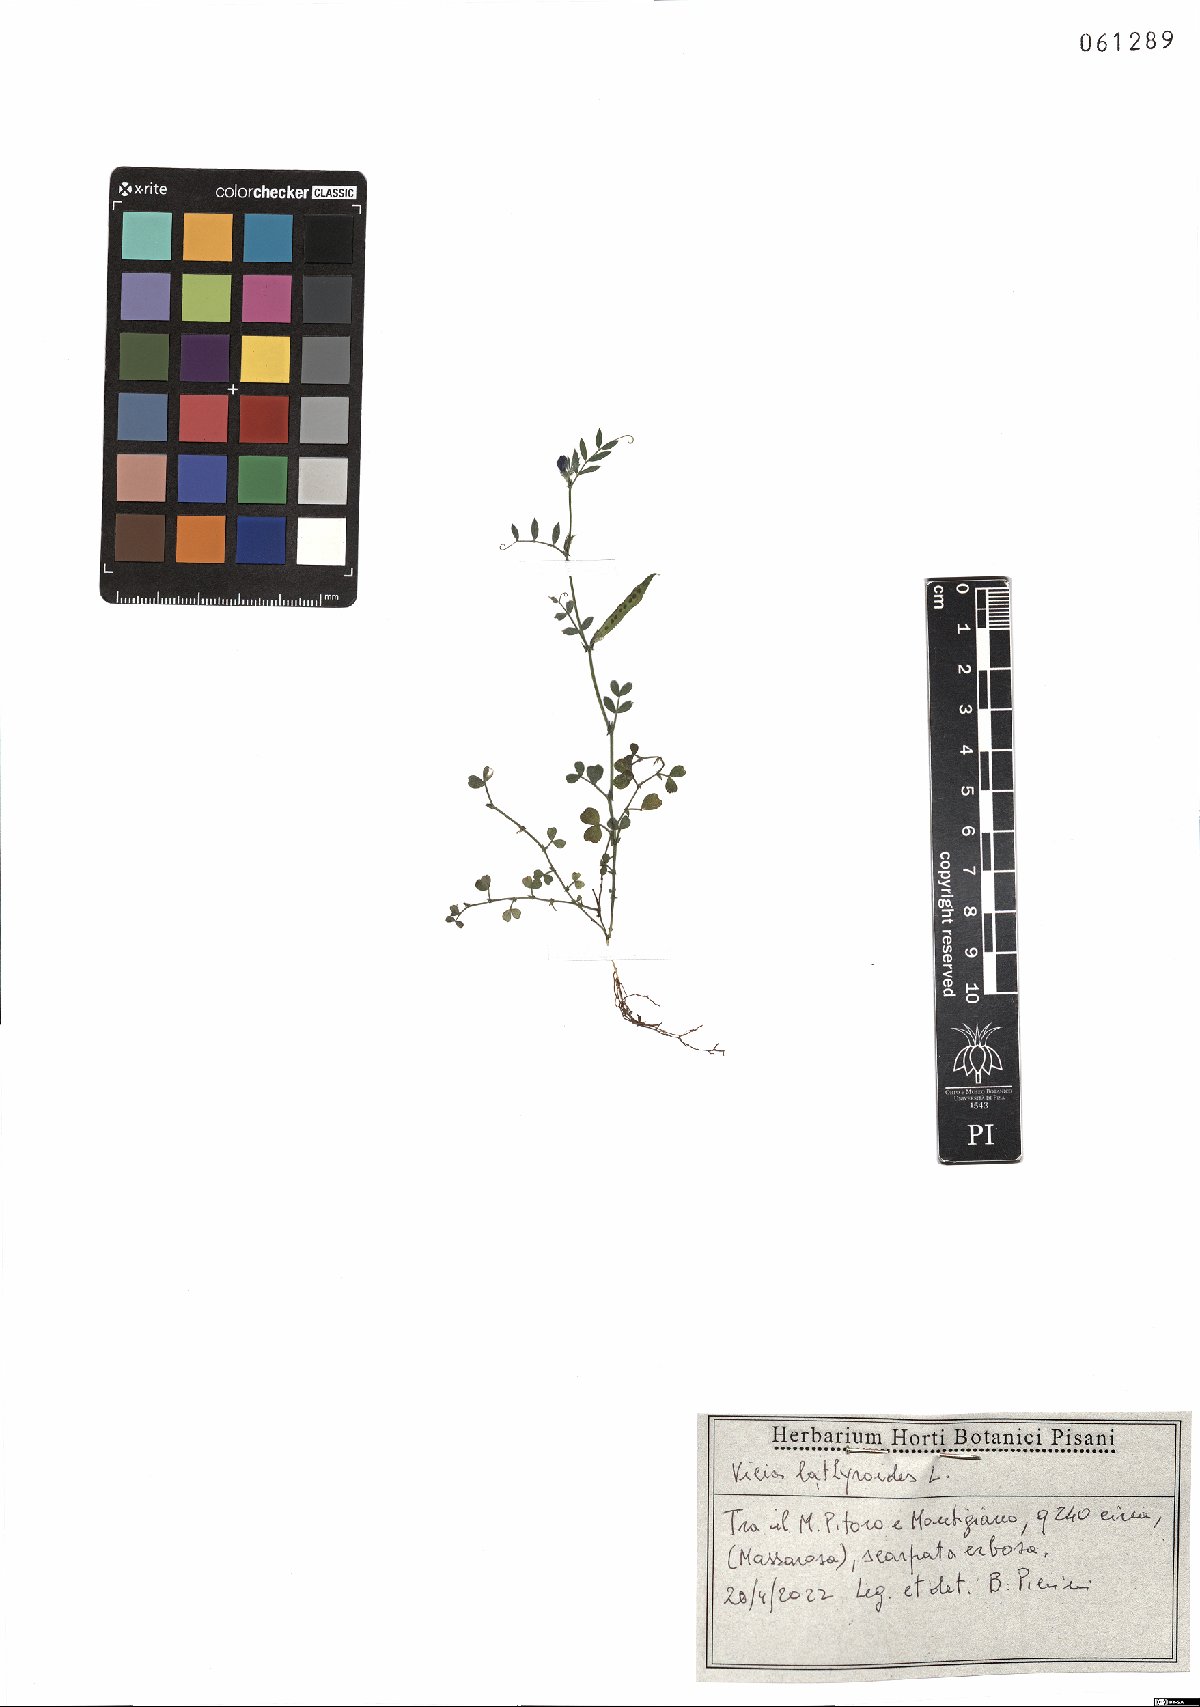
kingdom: Plantae
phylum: Tracheophyta
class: Magnoliopsida
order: Fabales
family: Fabaceae
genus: Vicia
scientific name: Vicia lathyroides
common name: Spring vetch
